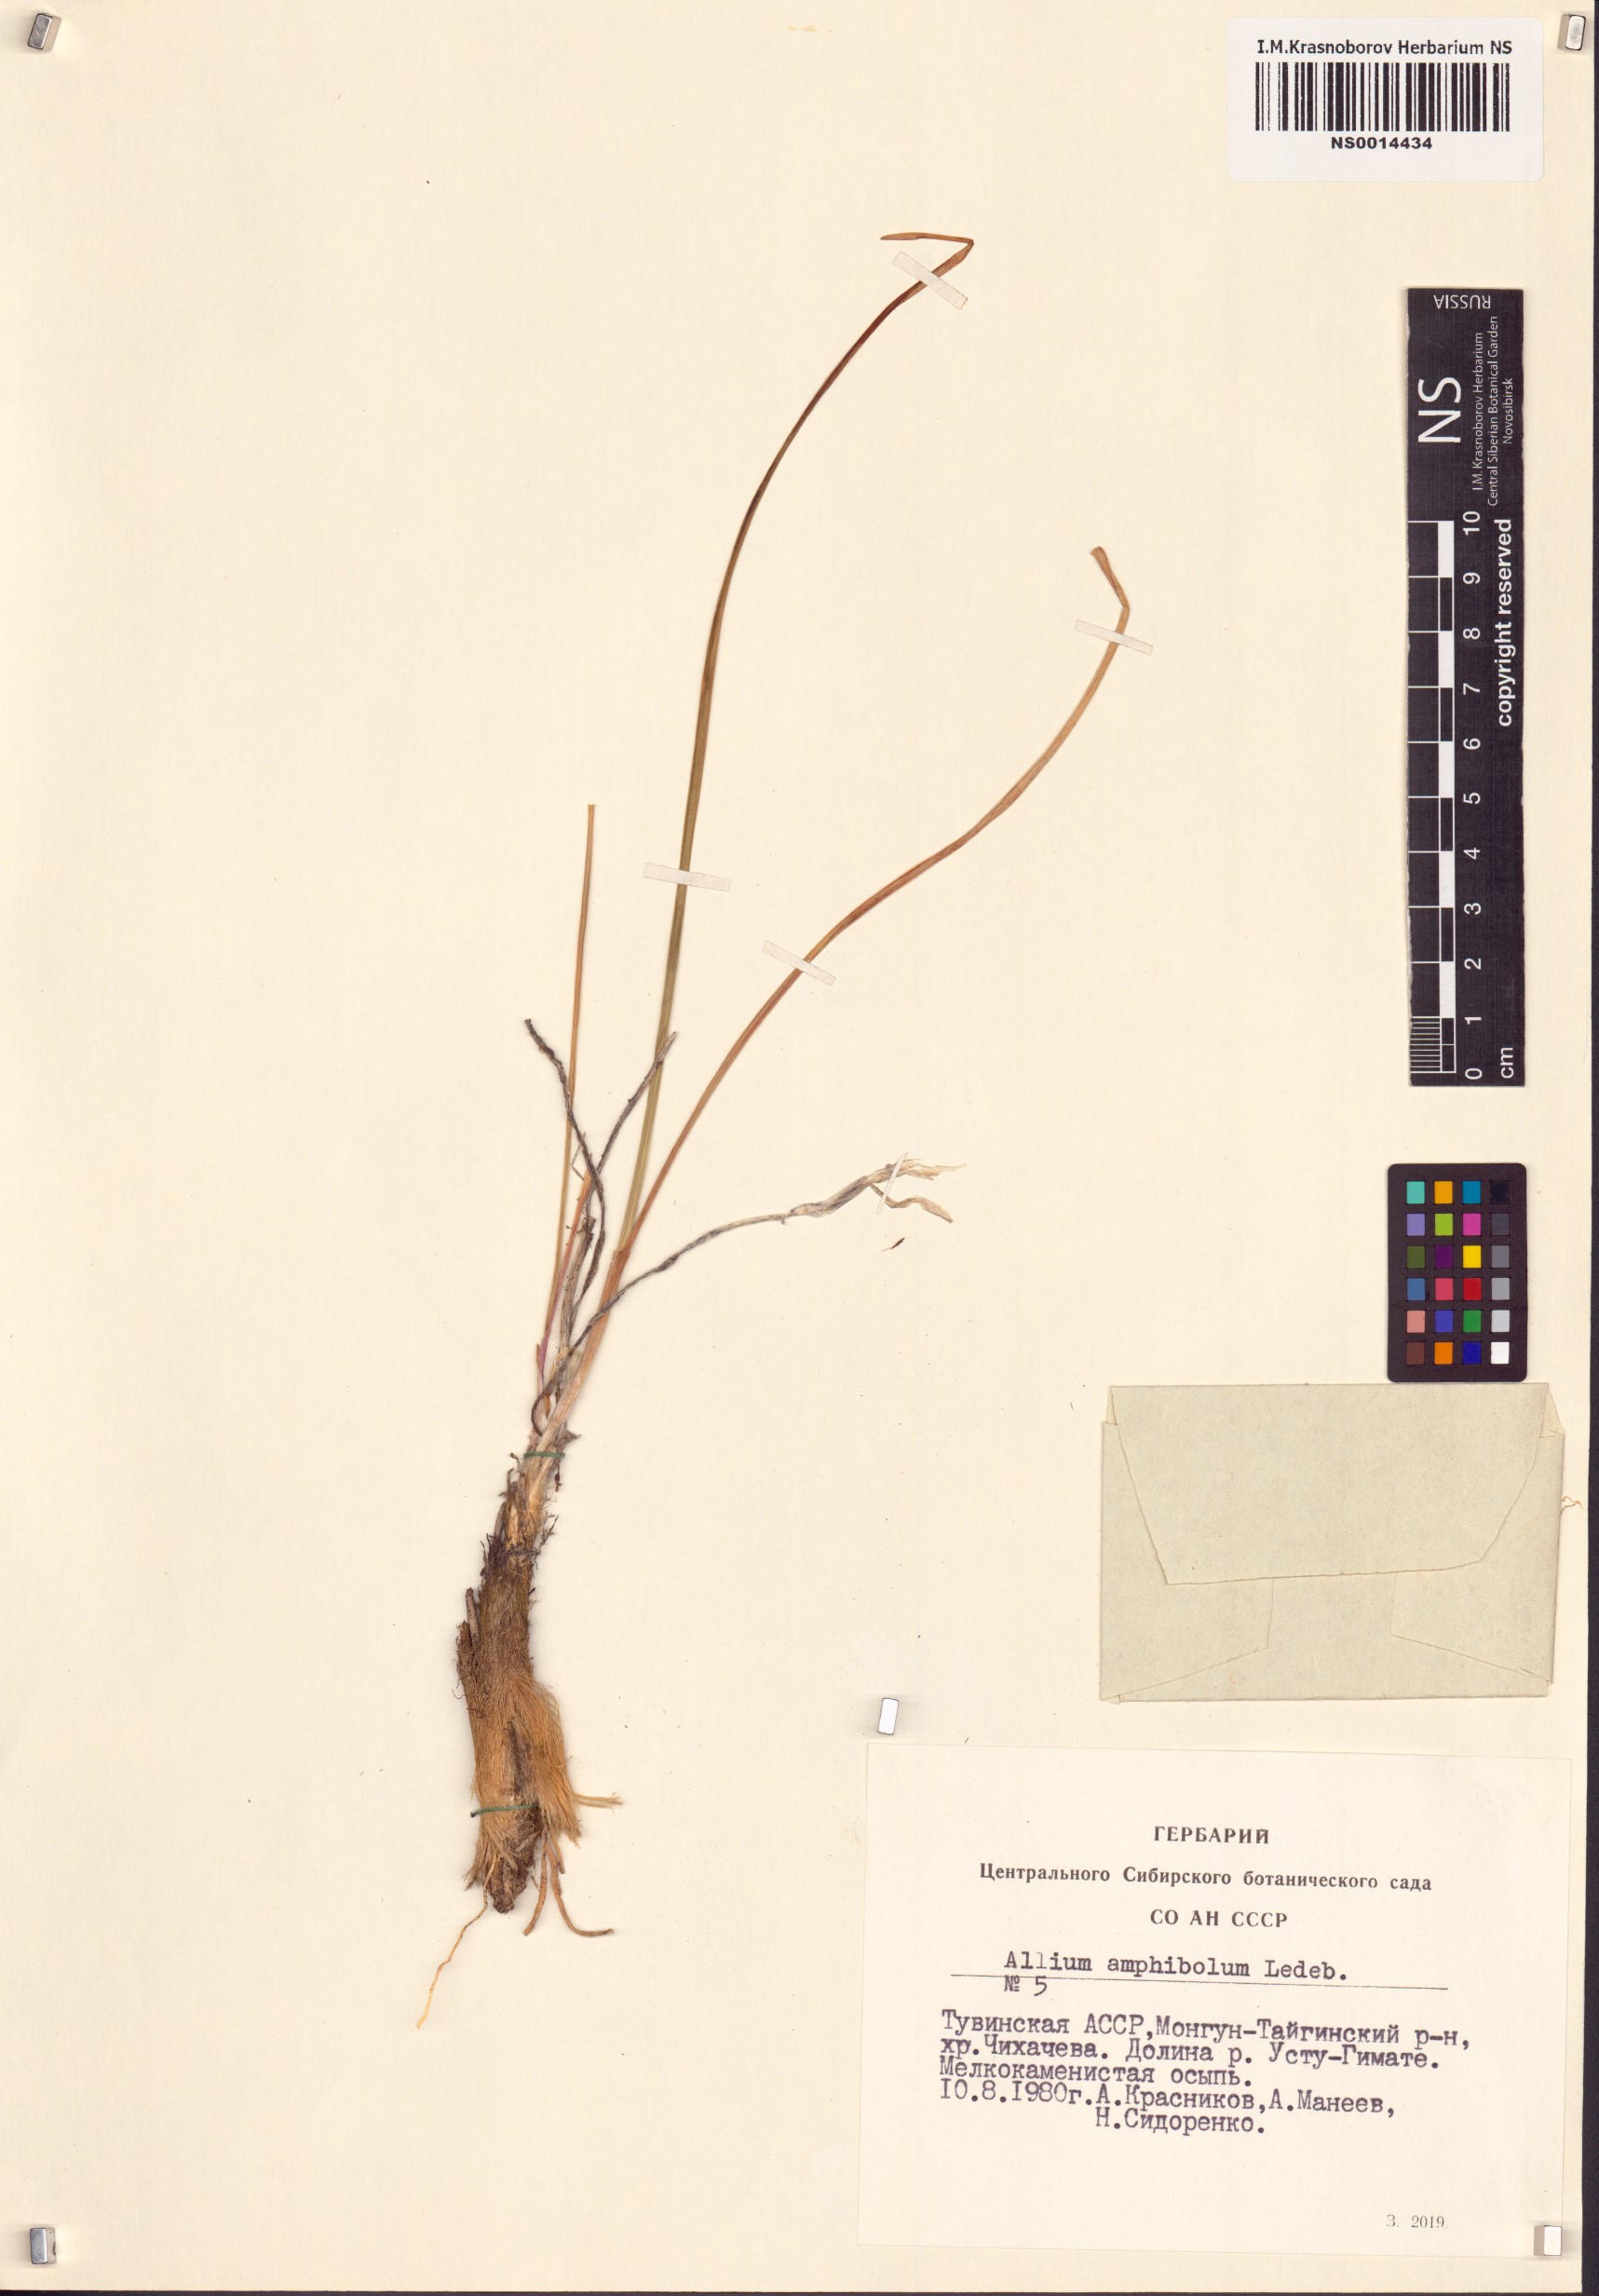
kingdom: Plantae
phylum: Tracheophyta
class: Liliopsida
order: Asparagales
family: Amaryllidaceae
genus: Allium
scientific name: Allium amphibolum
